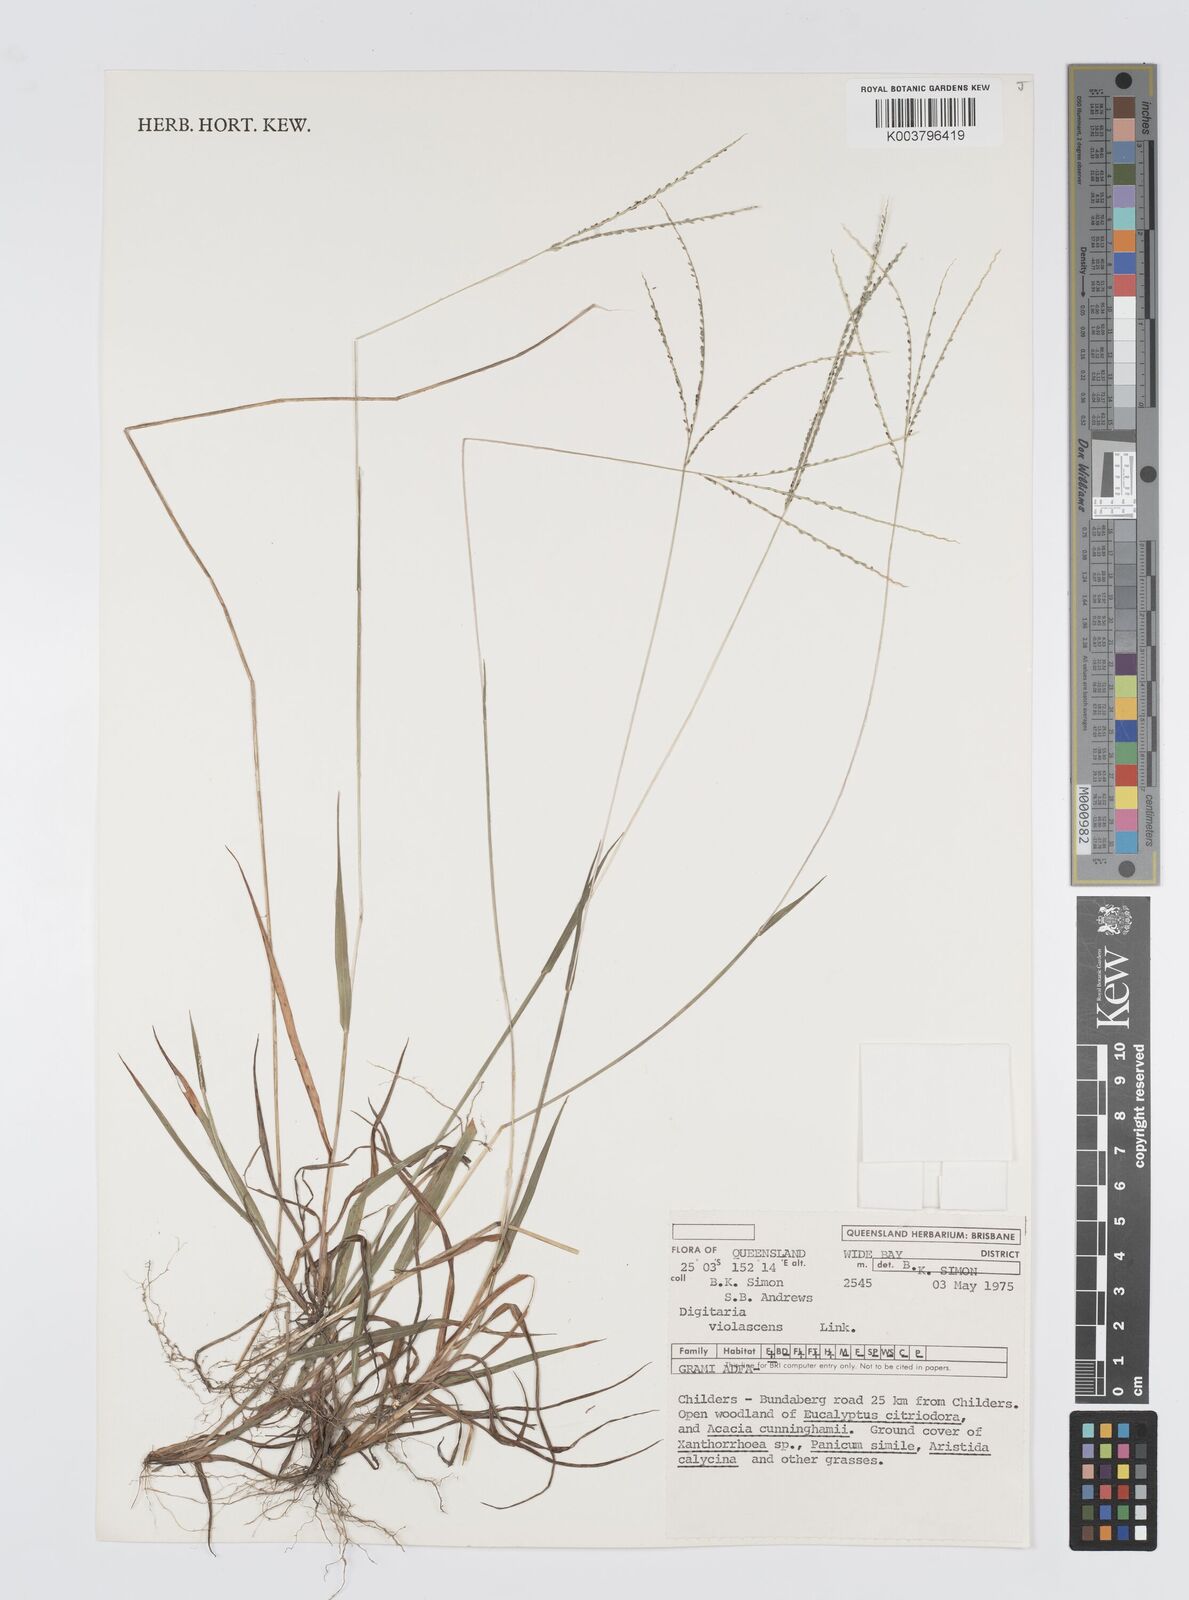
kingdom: Plantae
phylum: Tracheophyta
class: Liliopsida
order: Poales
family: Poaceae
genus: Digitaria
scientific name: Digitaria violascens
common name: Violet crabgrass
